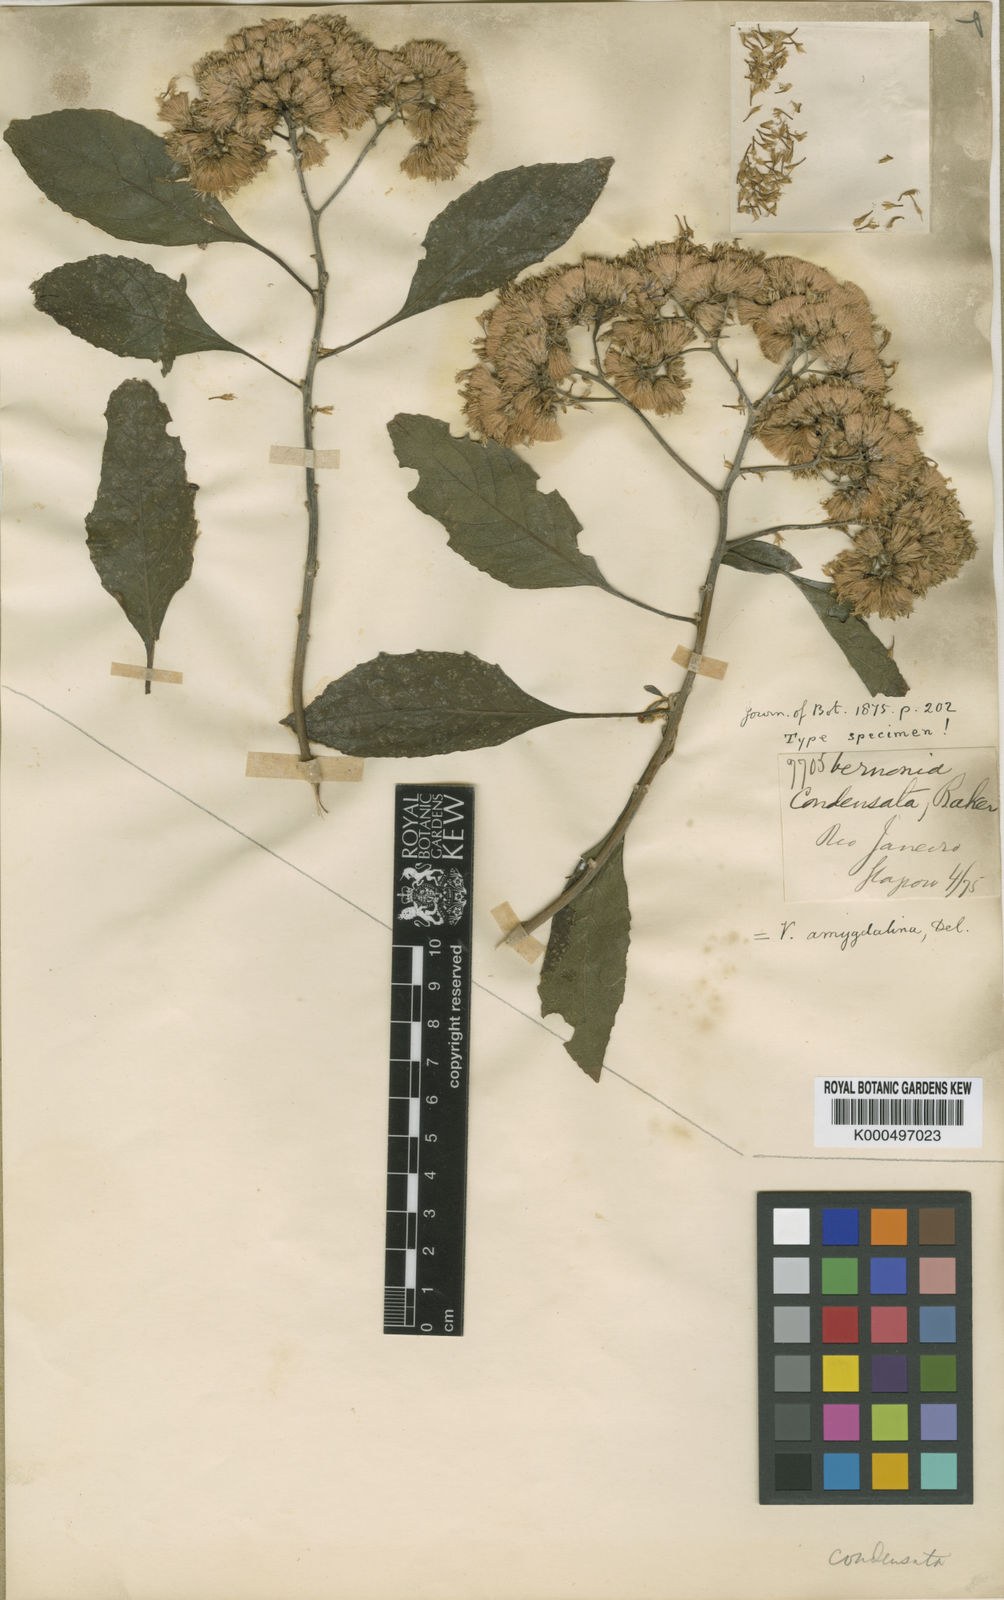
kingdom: Plantae
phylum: Tracheophyta
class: Magnoliopsida
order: Asterales
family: Asteraceae
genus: Acilepis
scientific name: Acilepis squarrosa
